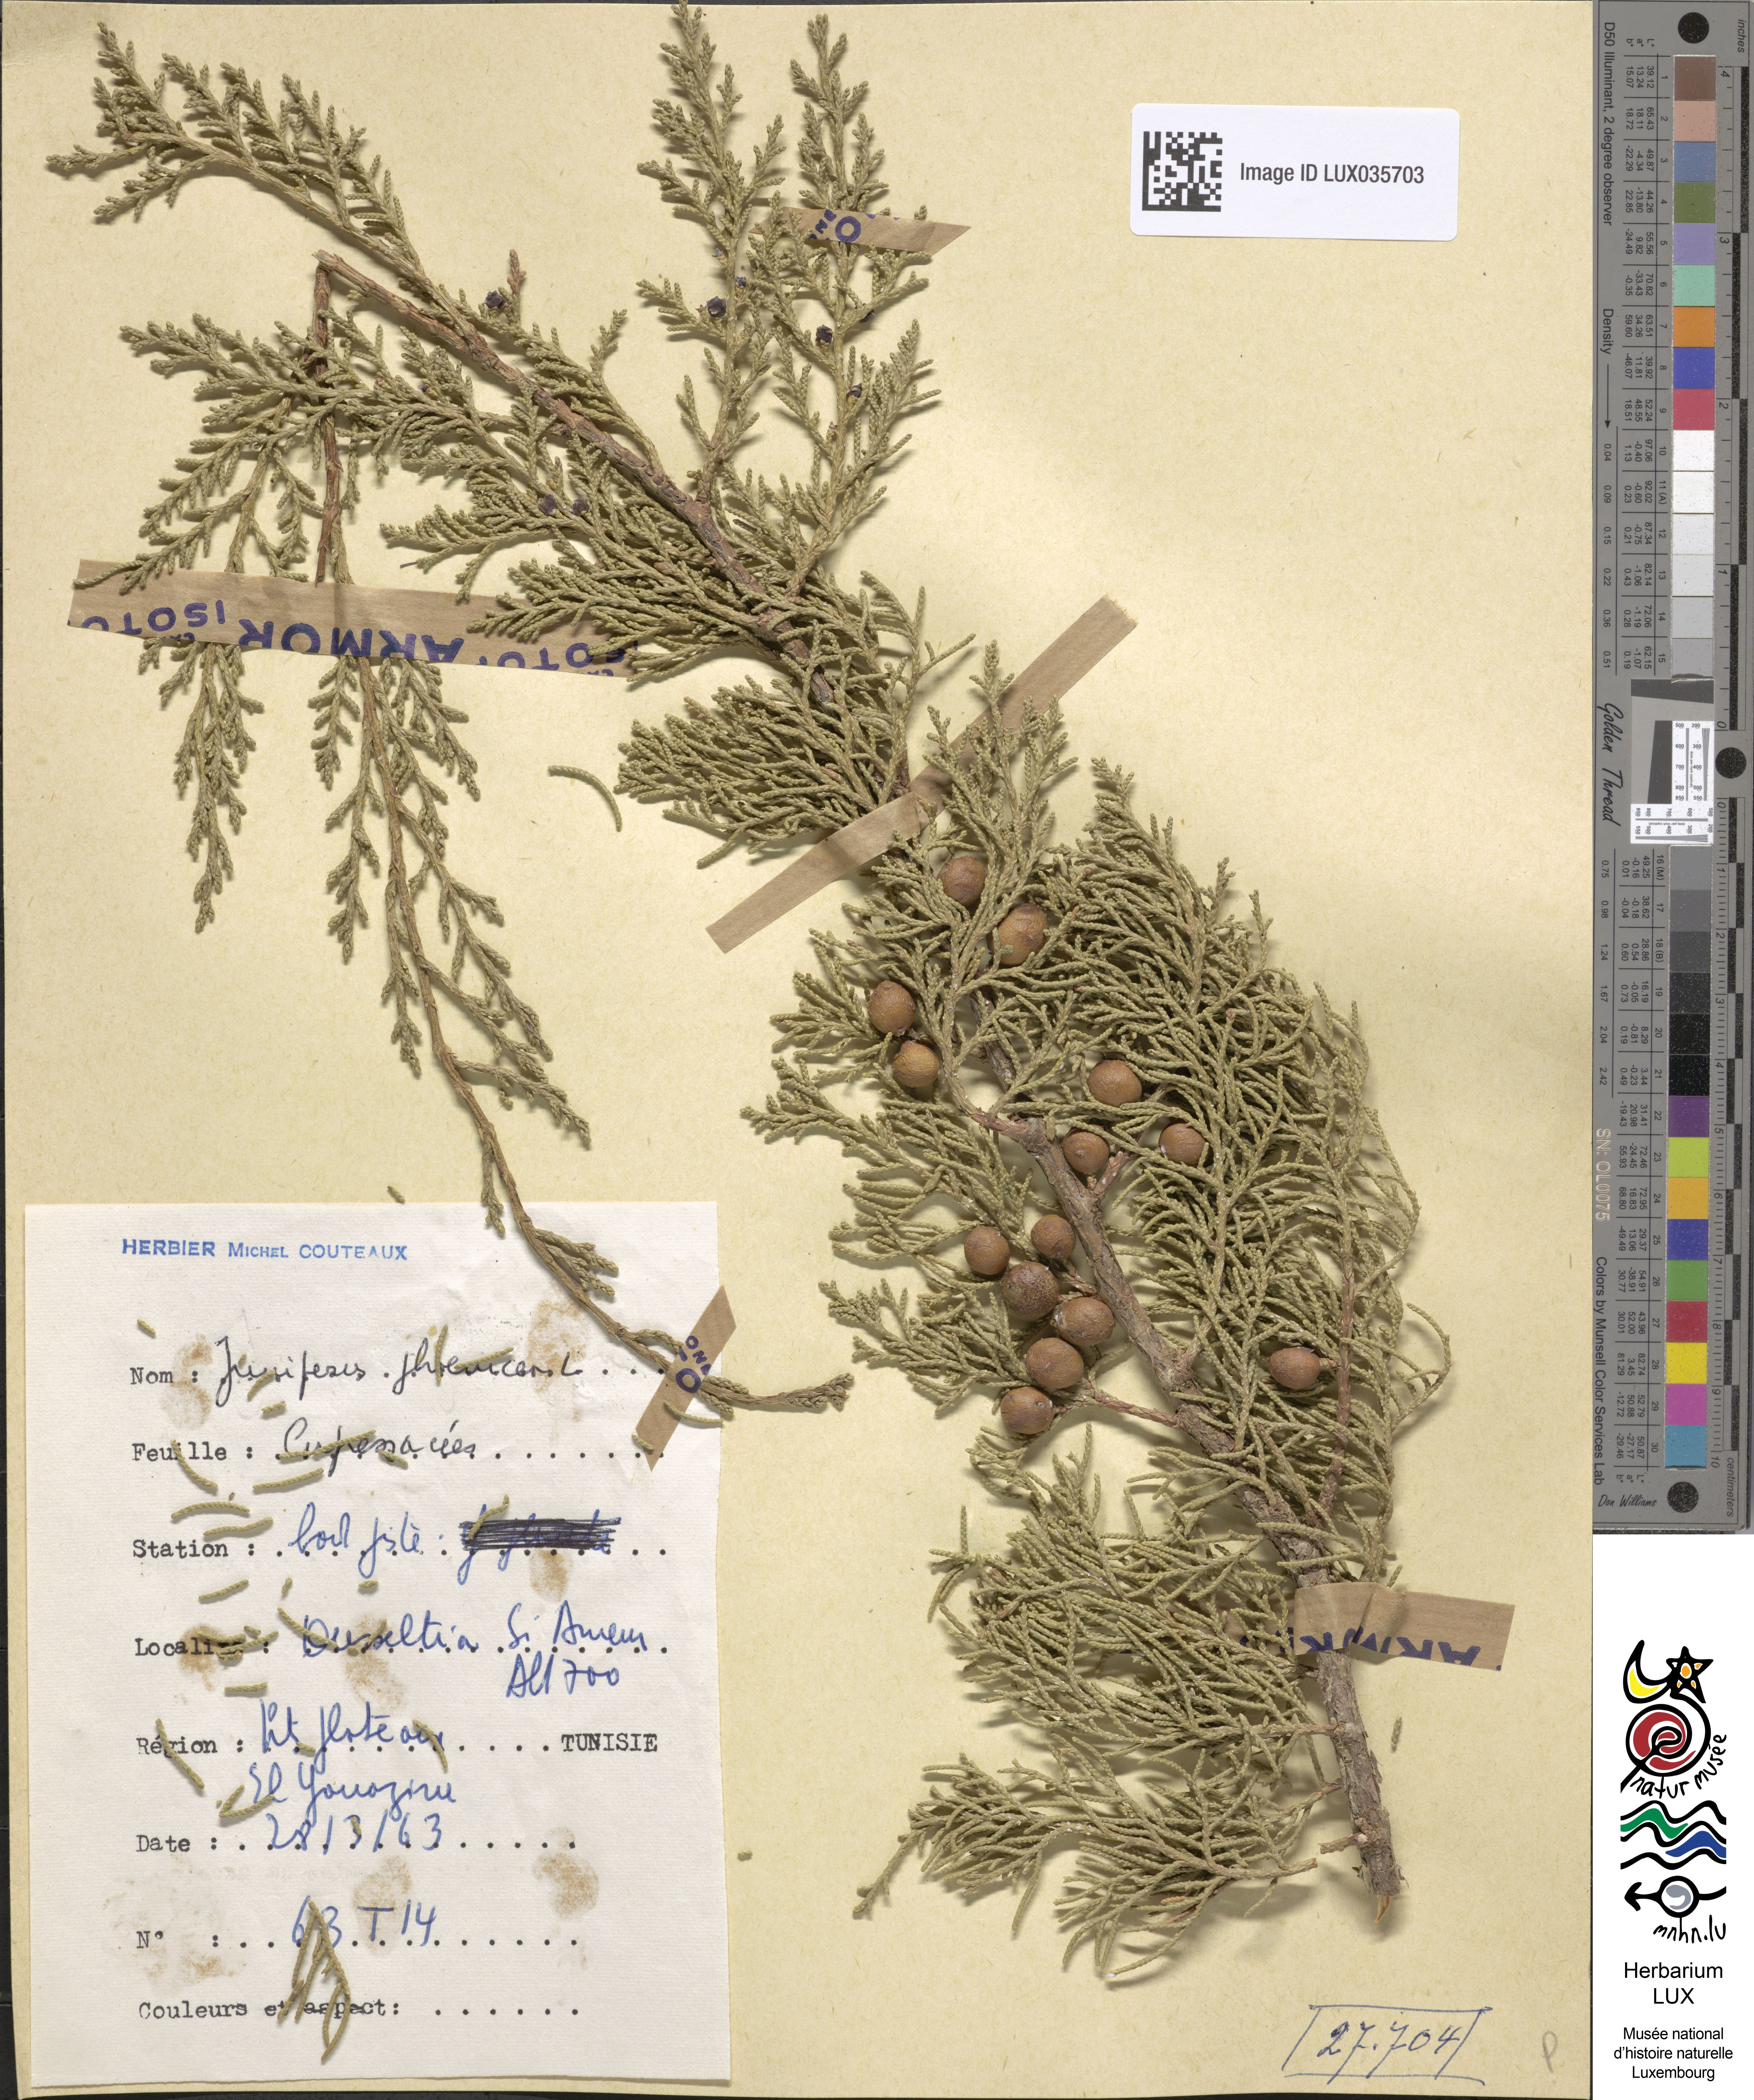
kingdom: Plantae
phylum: Tracheophyta
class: Pinopsida
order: Pinales
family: Cupressaceae
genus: Juniperus
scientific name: Juniperus phoenicea
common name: Phoenician juniper
